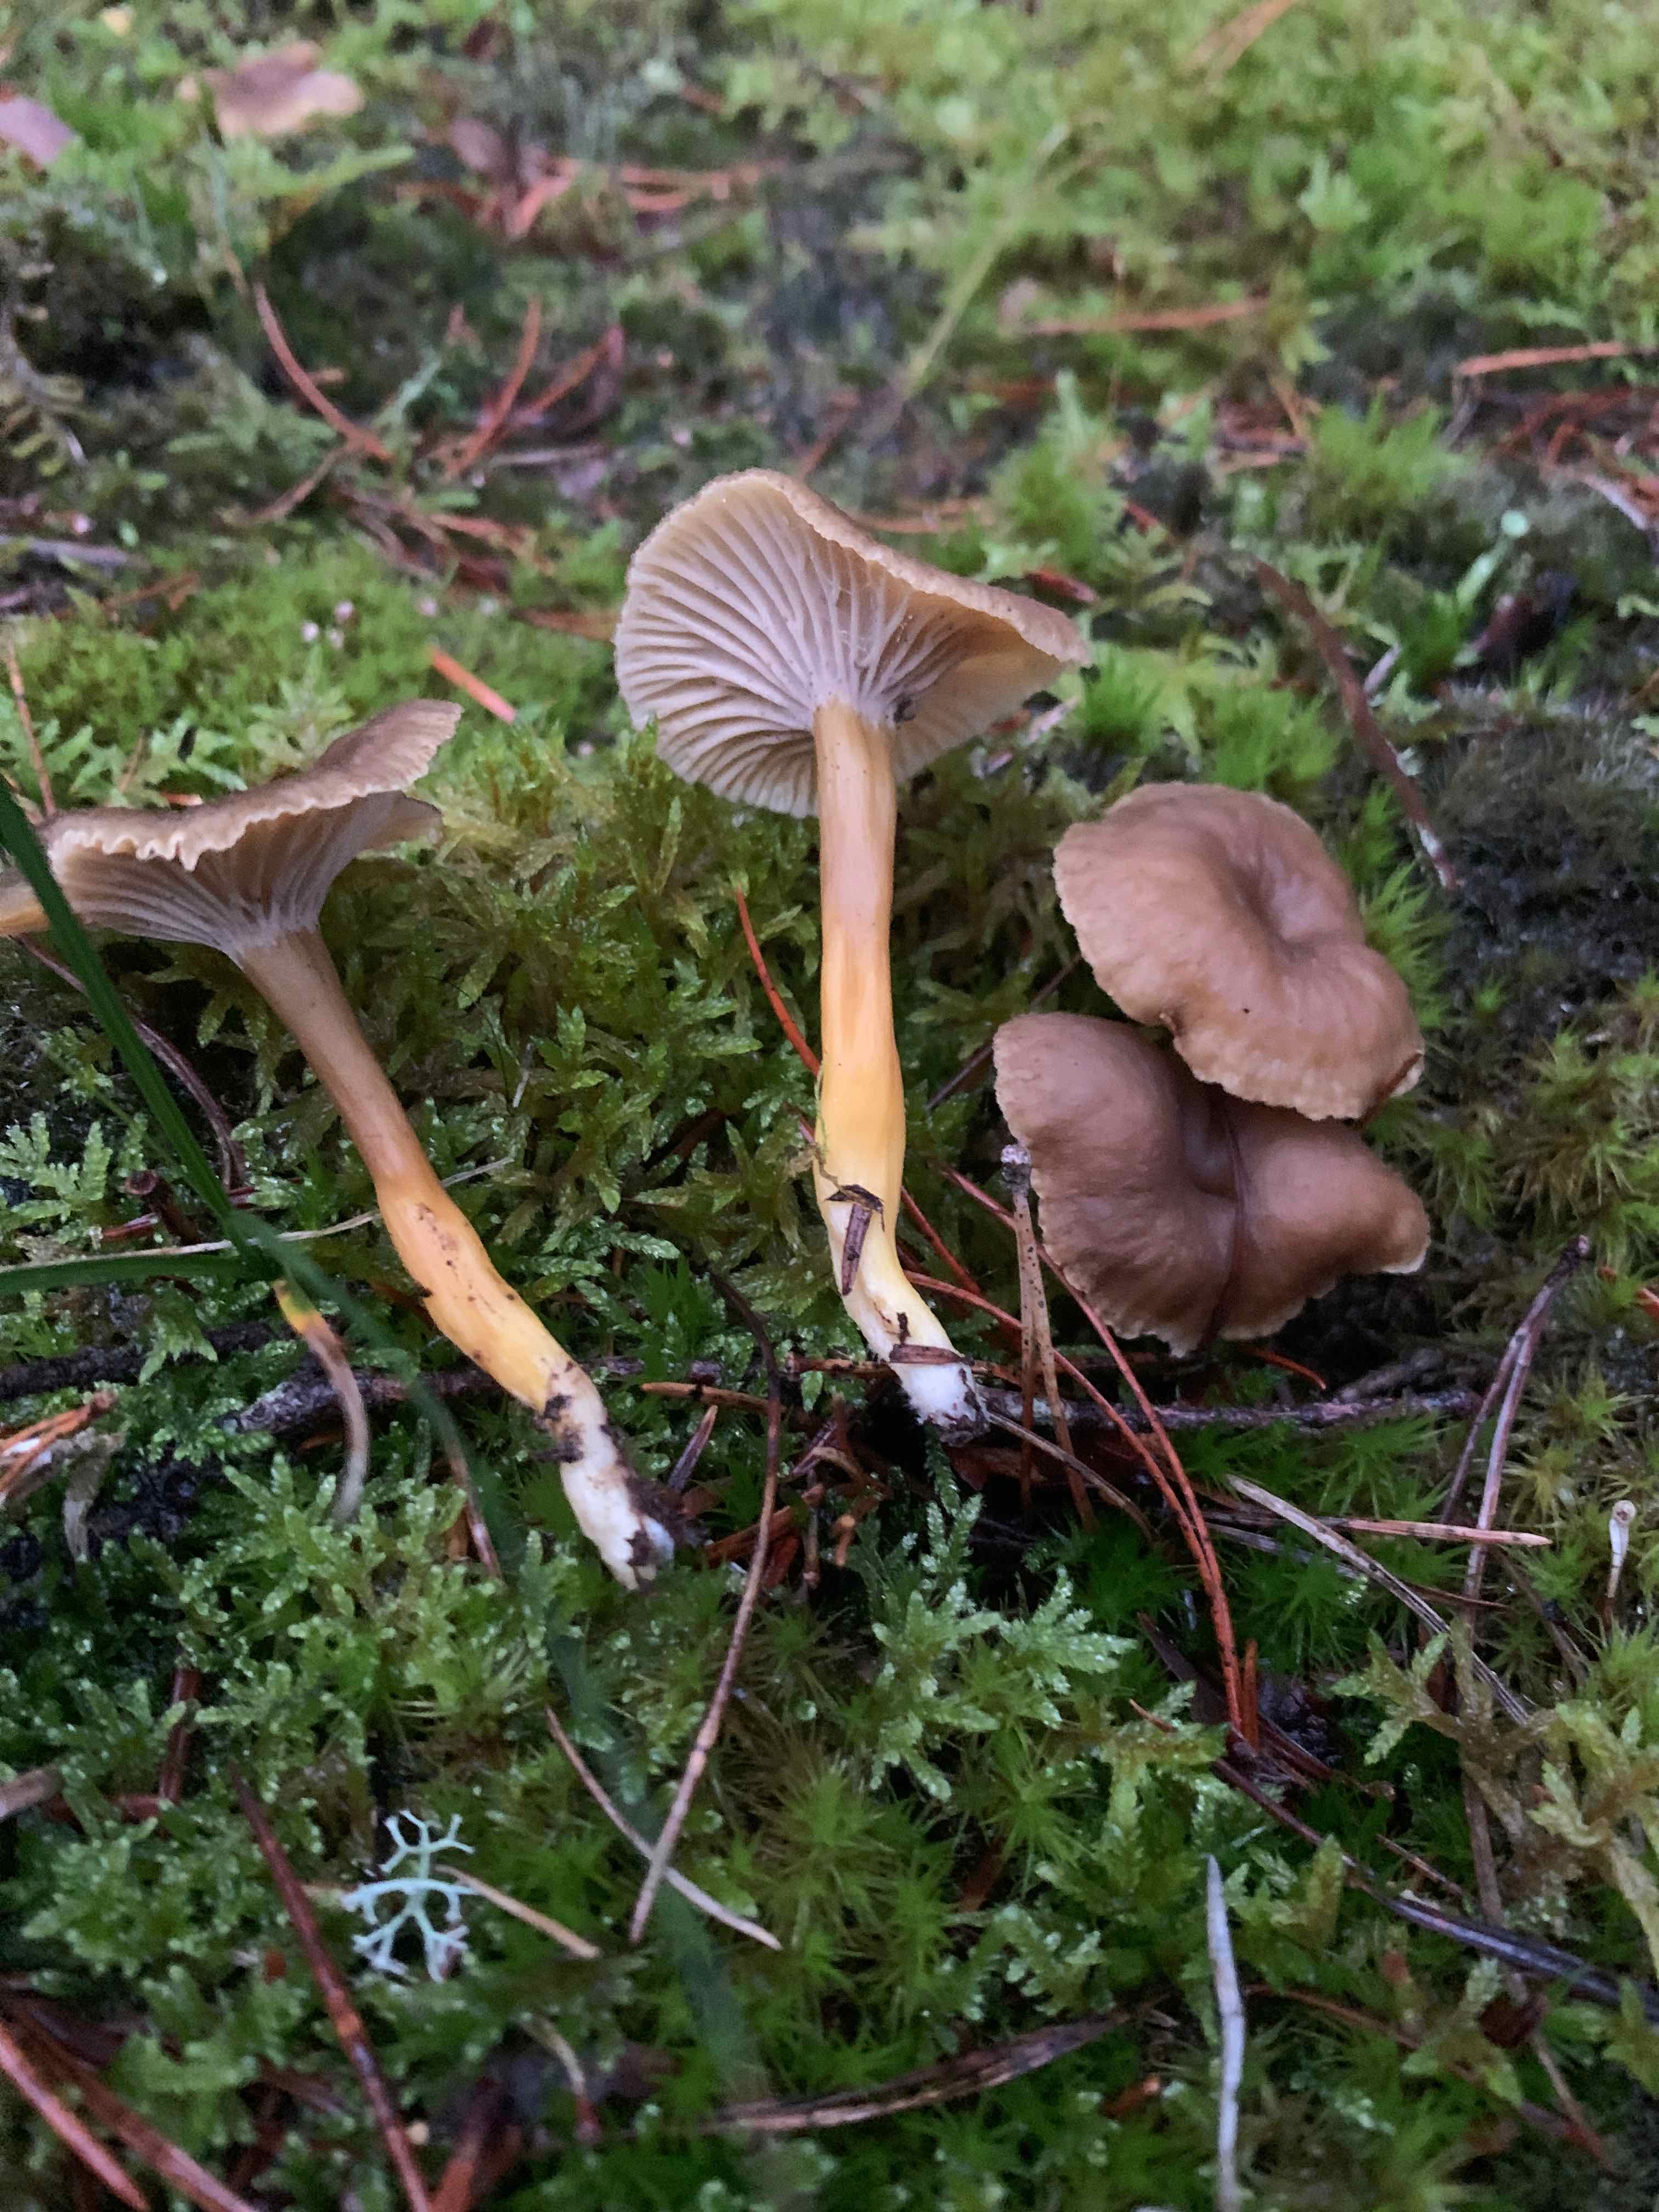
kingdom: Fungi
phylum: Basidiomycota
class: Agaricomycetes
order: Cantharellales
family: Hydnaceae
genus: Craterellus
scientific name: Craterellus tubaeformis
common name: tragt-kantarel
